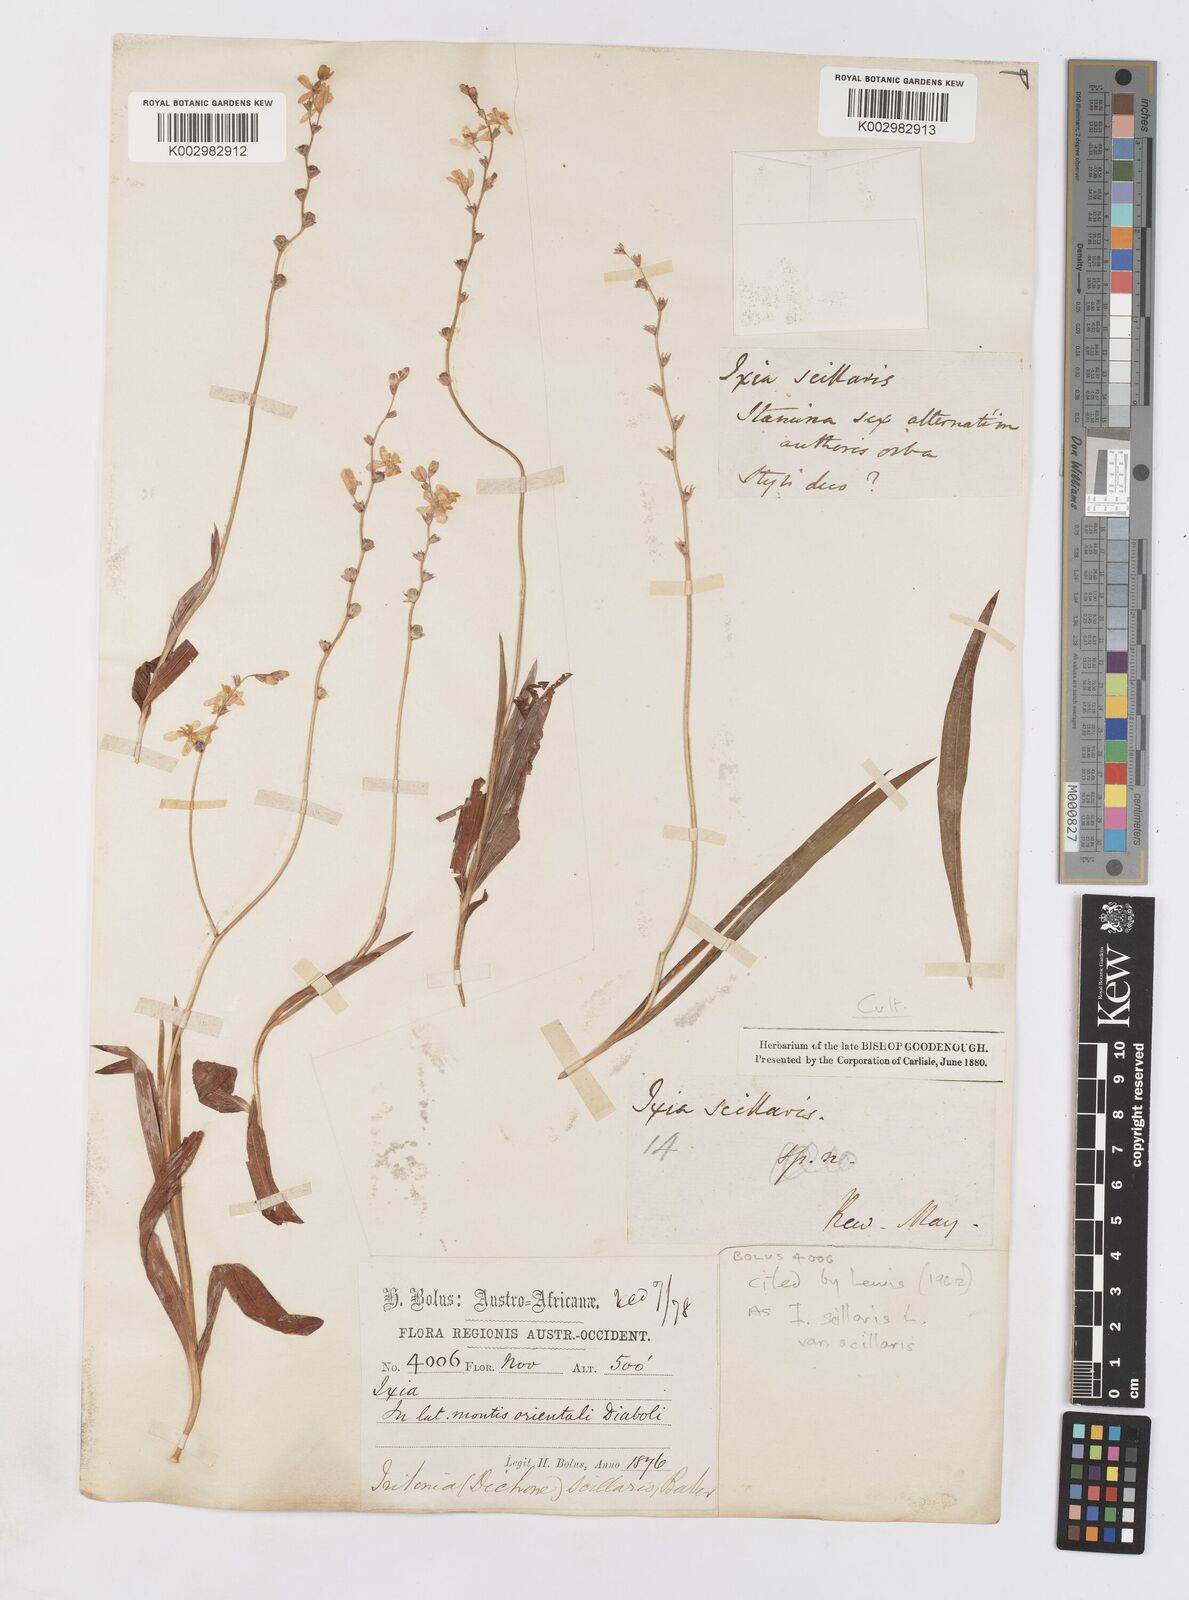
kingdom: Plantae
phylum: Tracheophyta
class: Liliopsida
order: Asparagales
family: Iridaceae
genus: Ixia
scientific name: Ixia scillaris
